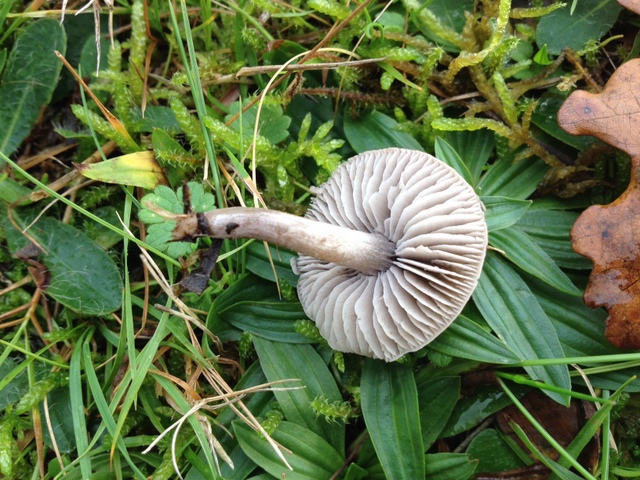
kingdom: Fungi
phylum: Basidiomycota
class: Agaricomycetes
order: Agaricales
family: Tricholomataceae
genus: Dermoloma
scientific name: Dermoloma cuneifolium
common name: eng-nonnehat
